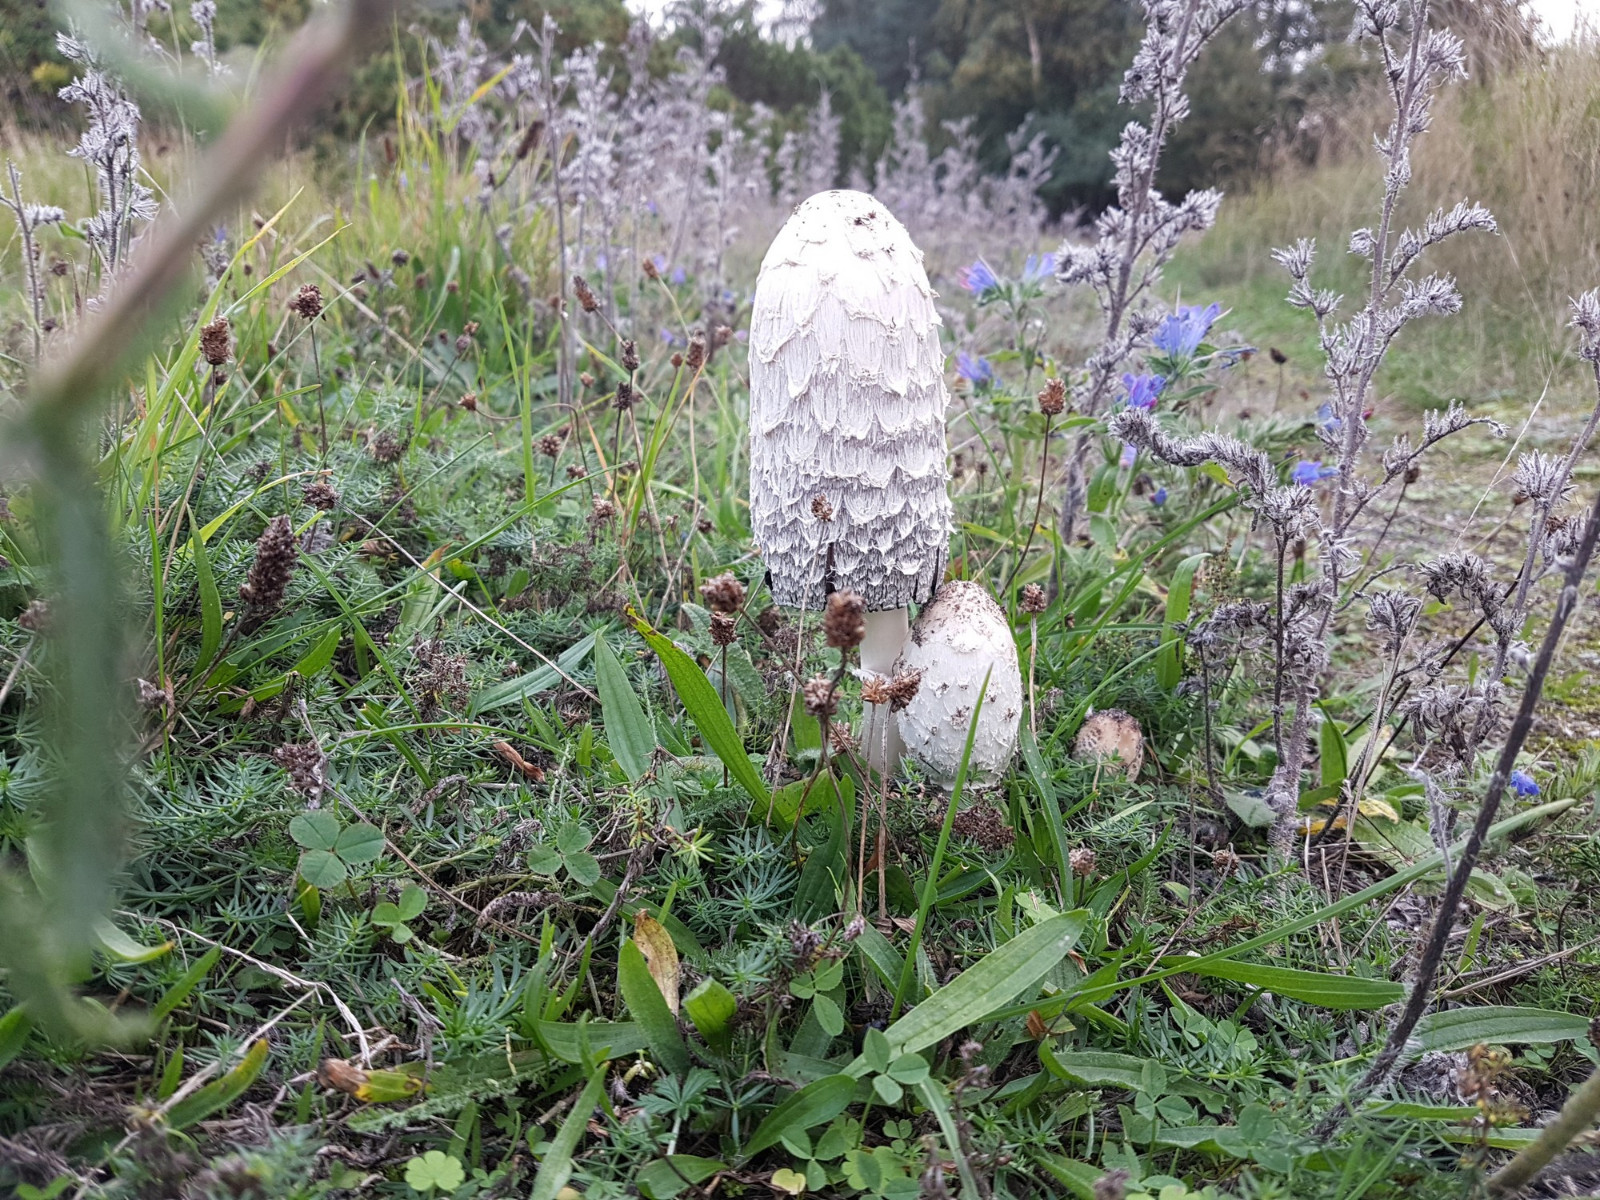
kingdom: Fungi
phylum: Basidiomycota
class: Agaricomycetes
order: Agaricales
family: Agaricaceae
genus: Coprinus
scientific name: Coprinus comatus
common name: stor parykhat
